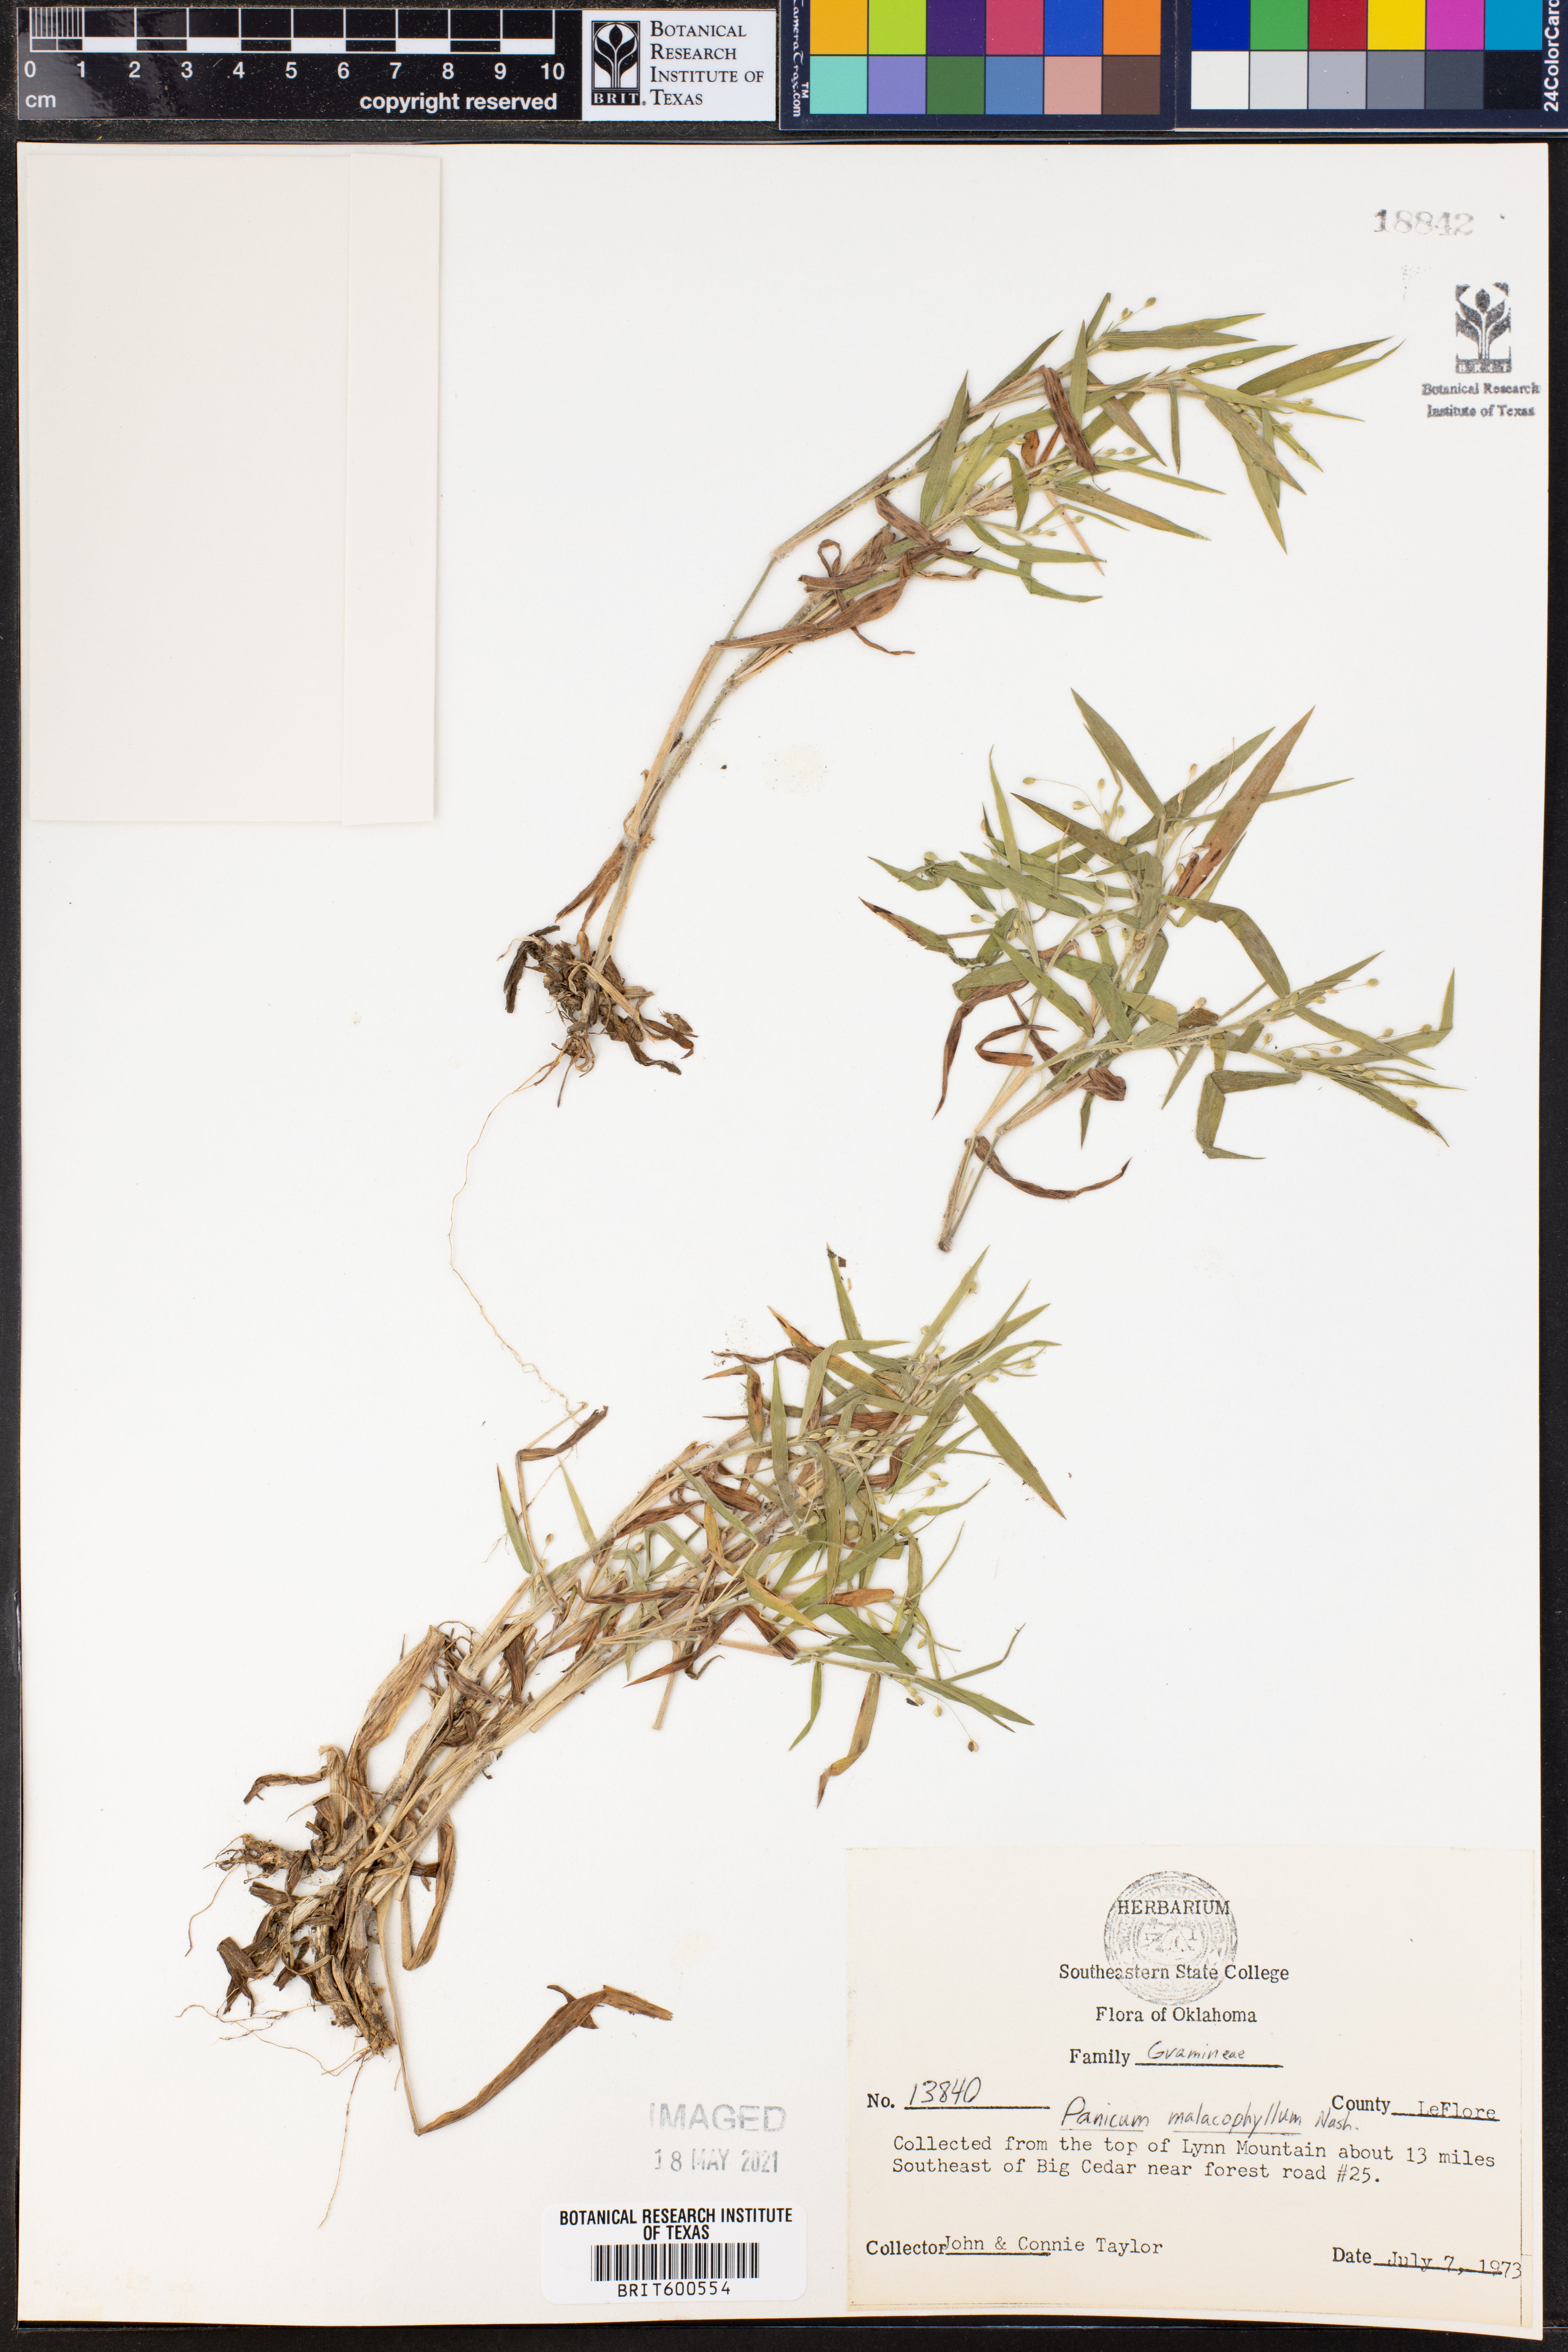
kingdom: Plantae
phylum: Tracheophyta
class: Liliopsida
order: Poales
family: Poaceae
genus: Dichanthelium
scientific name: Dichanthelium malacophyllum
